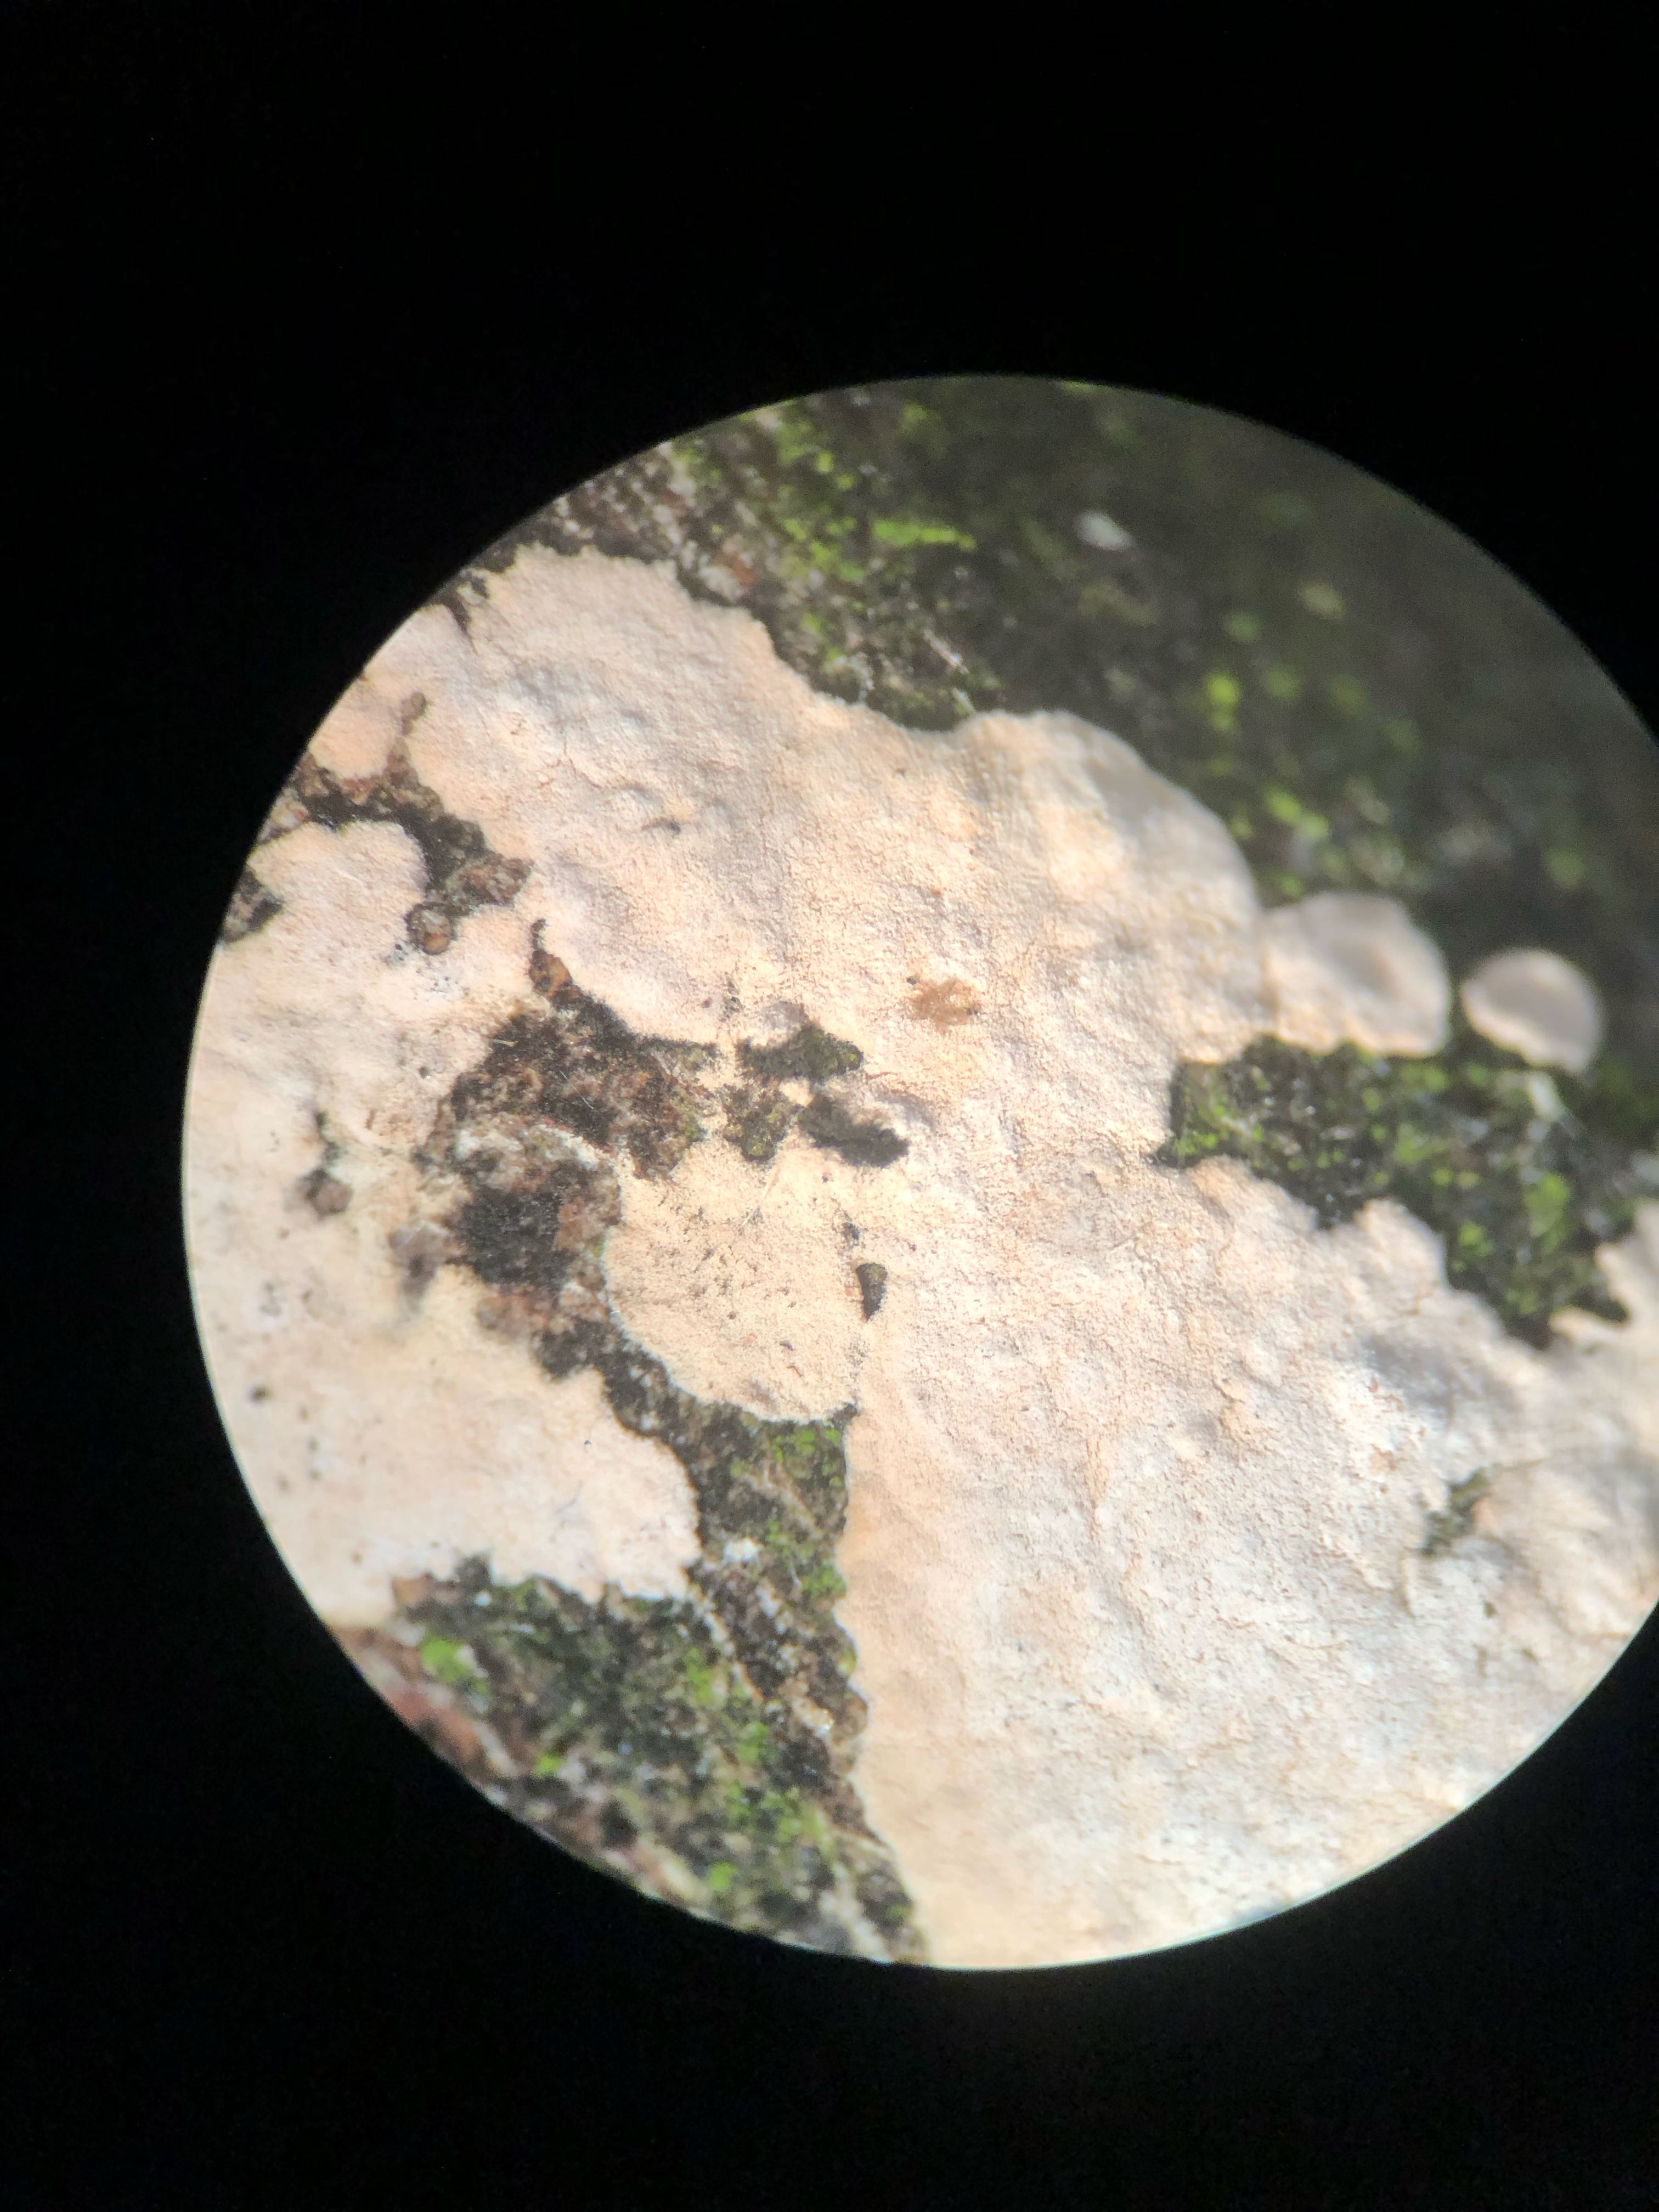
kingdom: Fungi
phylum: Basidiomycota
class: Agaricomycetes
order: Corticiales
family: Corticiaceae
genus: Corticium
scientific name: Corticium roseum
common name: rosa barkskind
